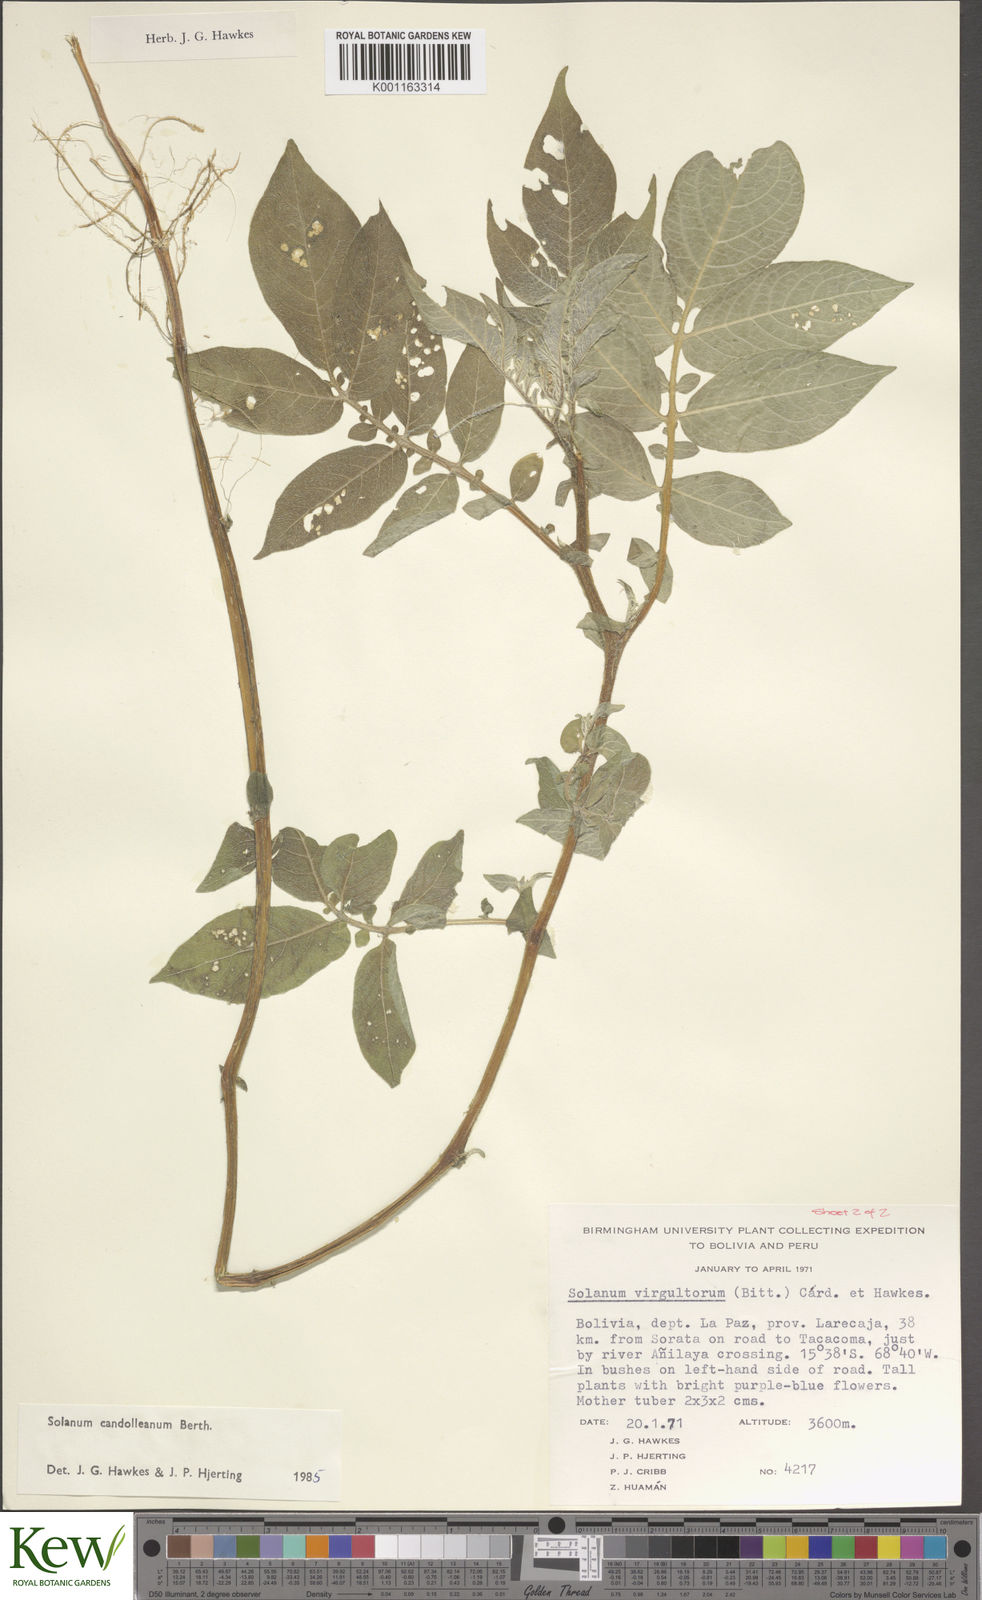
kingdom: Plantae
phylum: Tracheophyta
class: Magnoliopsida
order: Solanales
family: Solanaceae
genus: Solanum
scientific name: Solanum candolleanum
